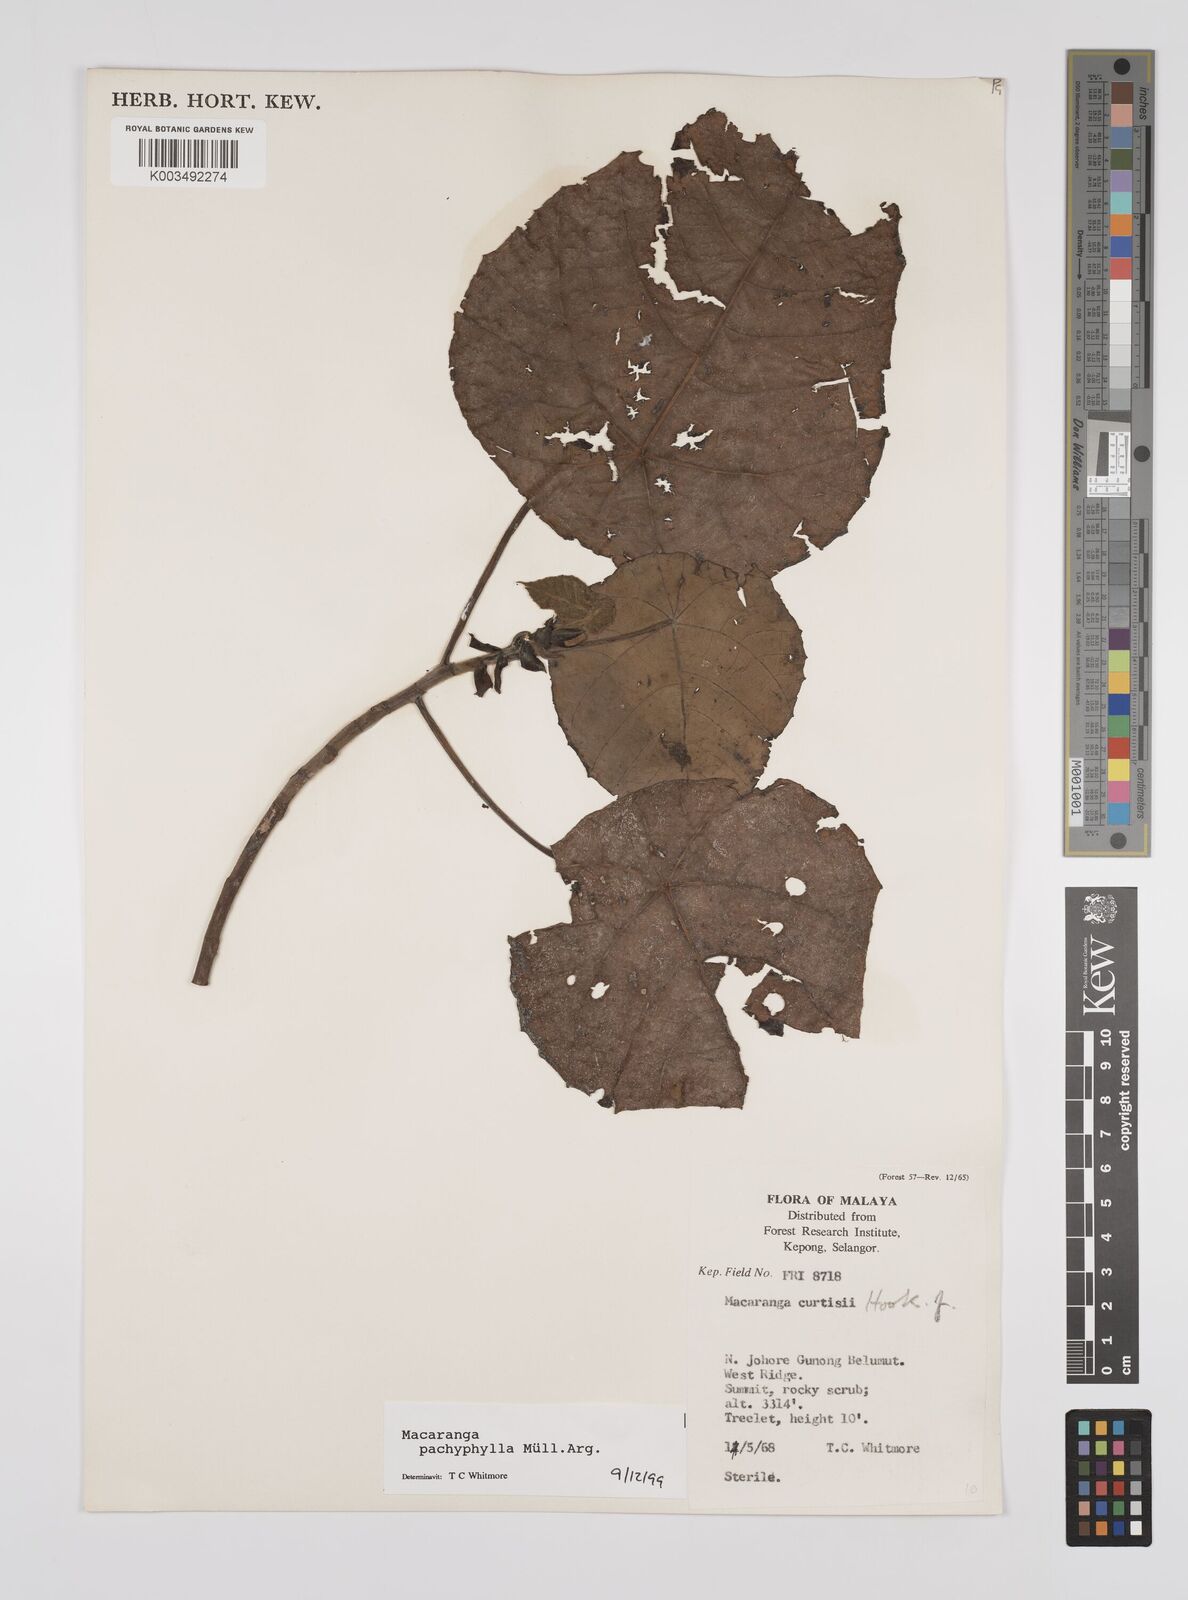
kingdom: Plantae
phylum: Tracheophyta
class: Magnoliopsida
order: Malpighiales
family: Euphorbiaceae
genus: Macaranga
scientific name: Macaranga pachyphylla
